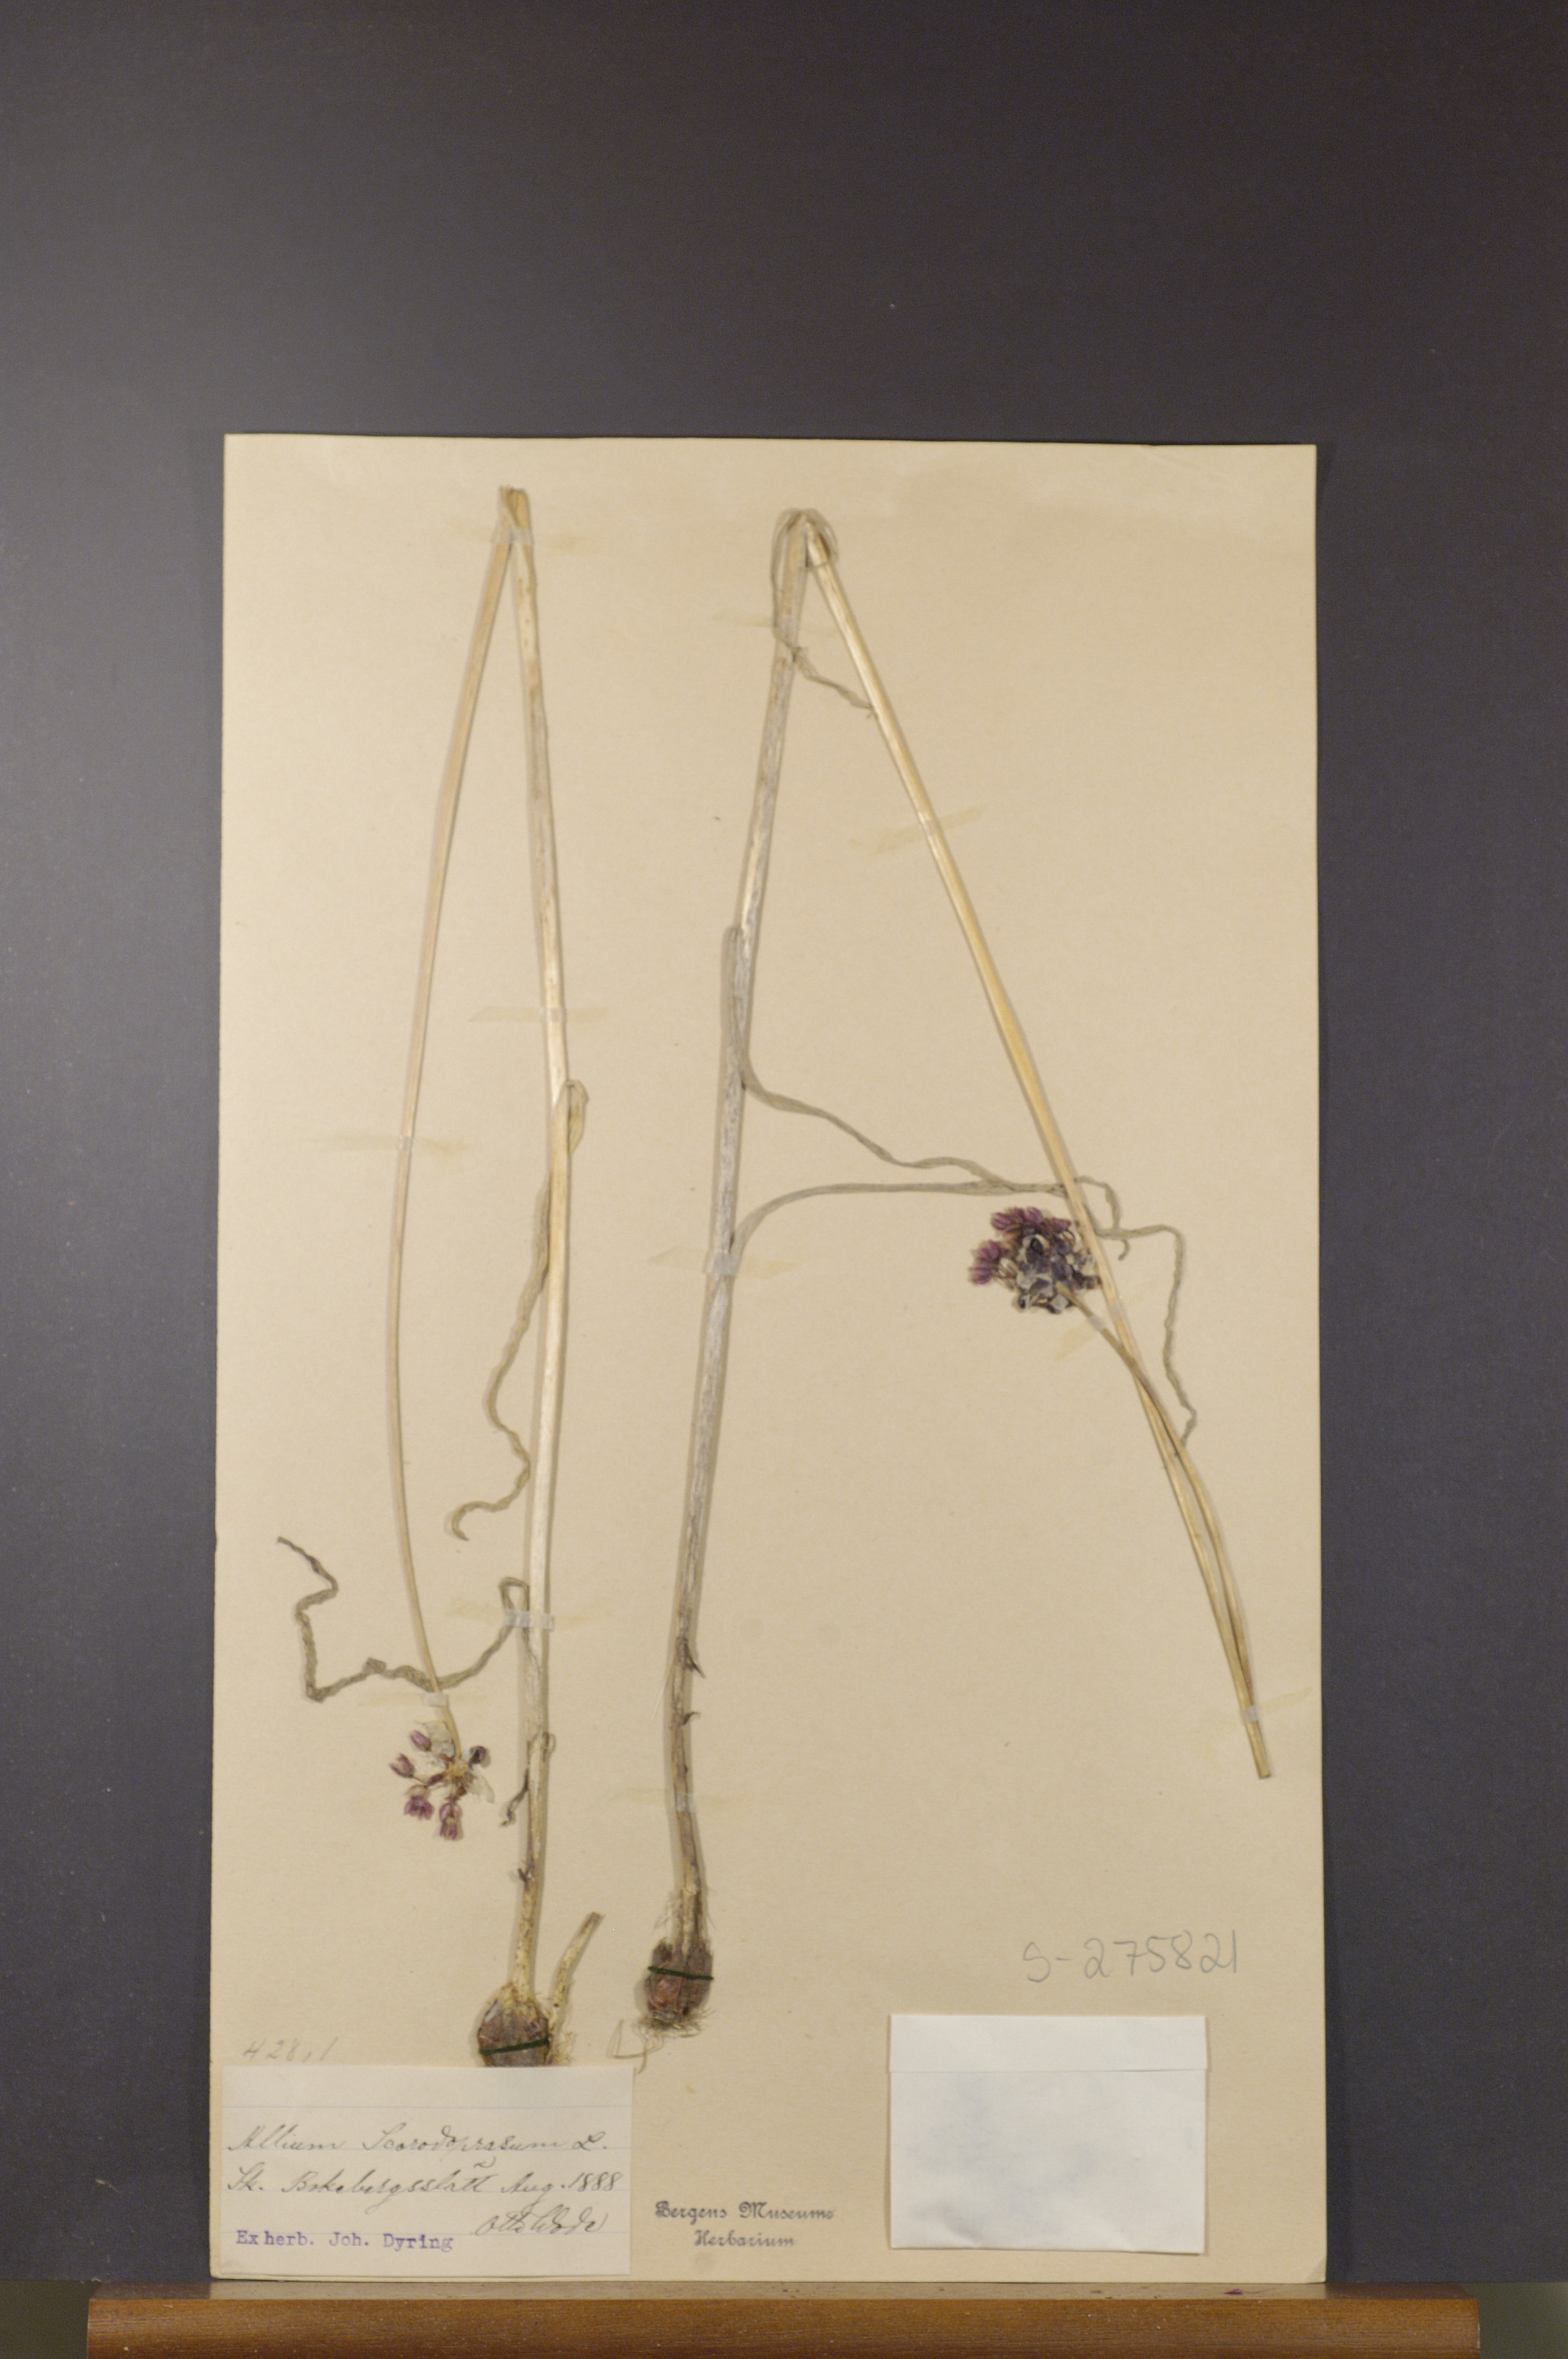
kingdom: Plantae
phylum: Tracheophyta
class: Liliopsida
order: Asparagales
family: Amaryllidaceae
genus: Allium
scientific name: Allium scorodoprasum
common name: Sand leek
